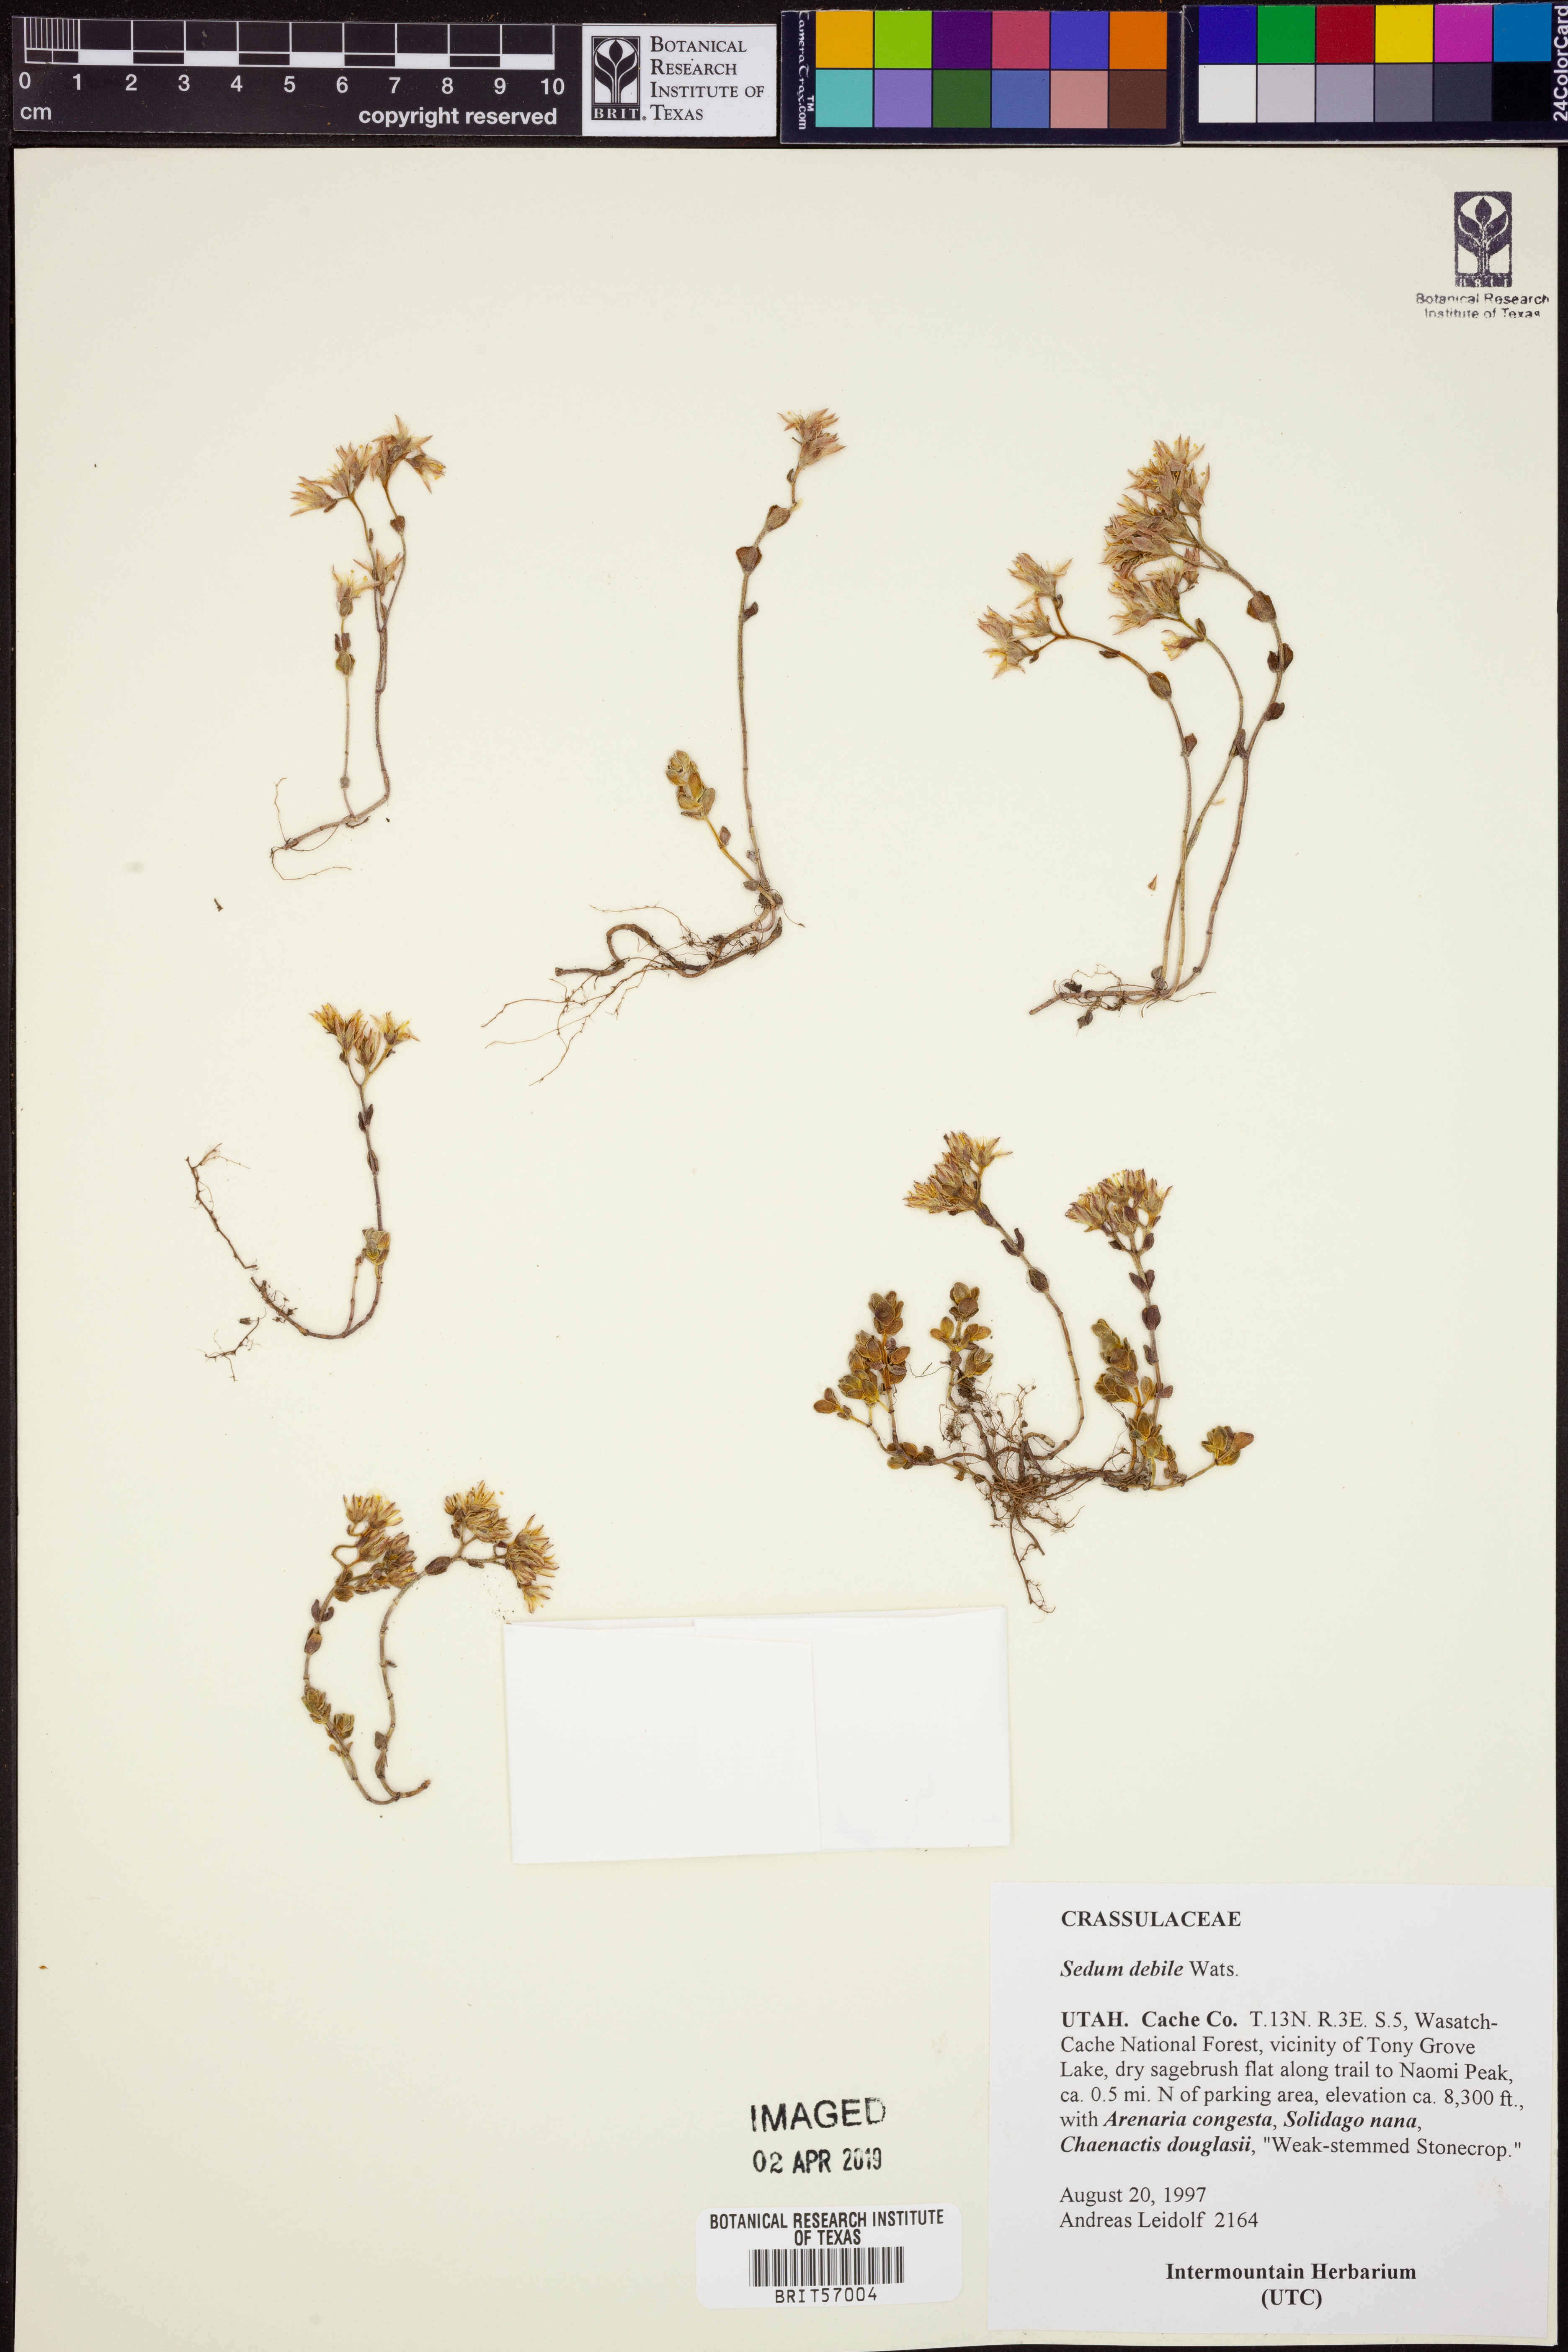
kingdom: Plantae
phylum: Tracheophyta
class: Magnoliopsida
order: Saxifragales
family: Crassulaceae
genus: Sedum
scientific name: Sedum debile
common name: Weak-stem stonecrop
